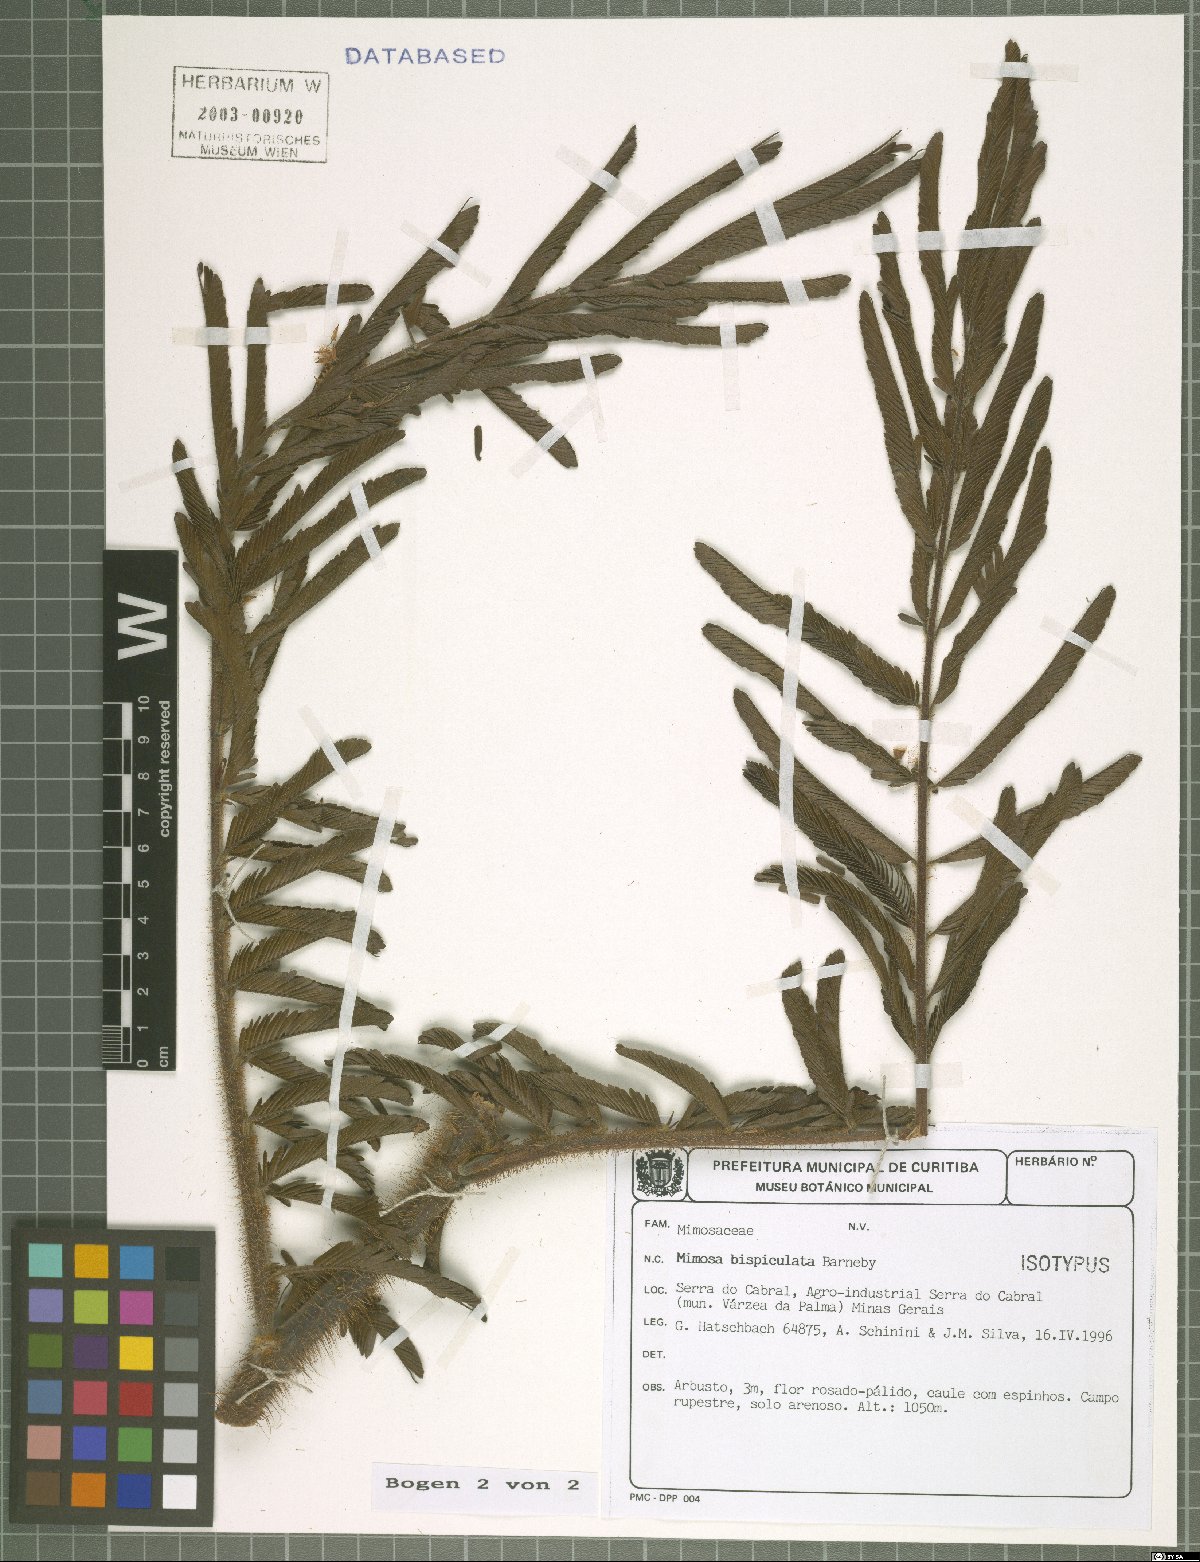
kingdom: Plantae
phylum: Tracheophyta
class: Magnoliopsida
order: Fabales
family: Fabaceae
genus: Mimosa
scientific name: Mimosa bispiculata
